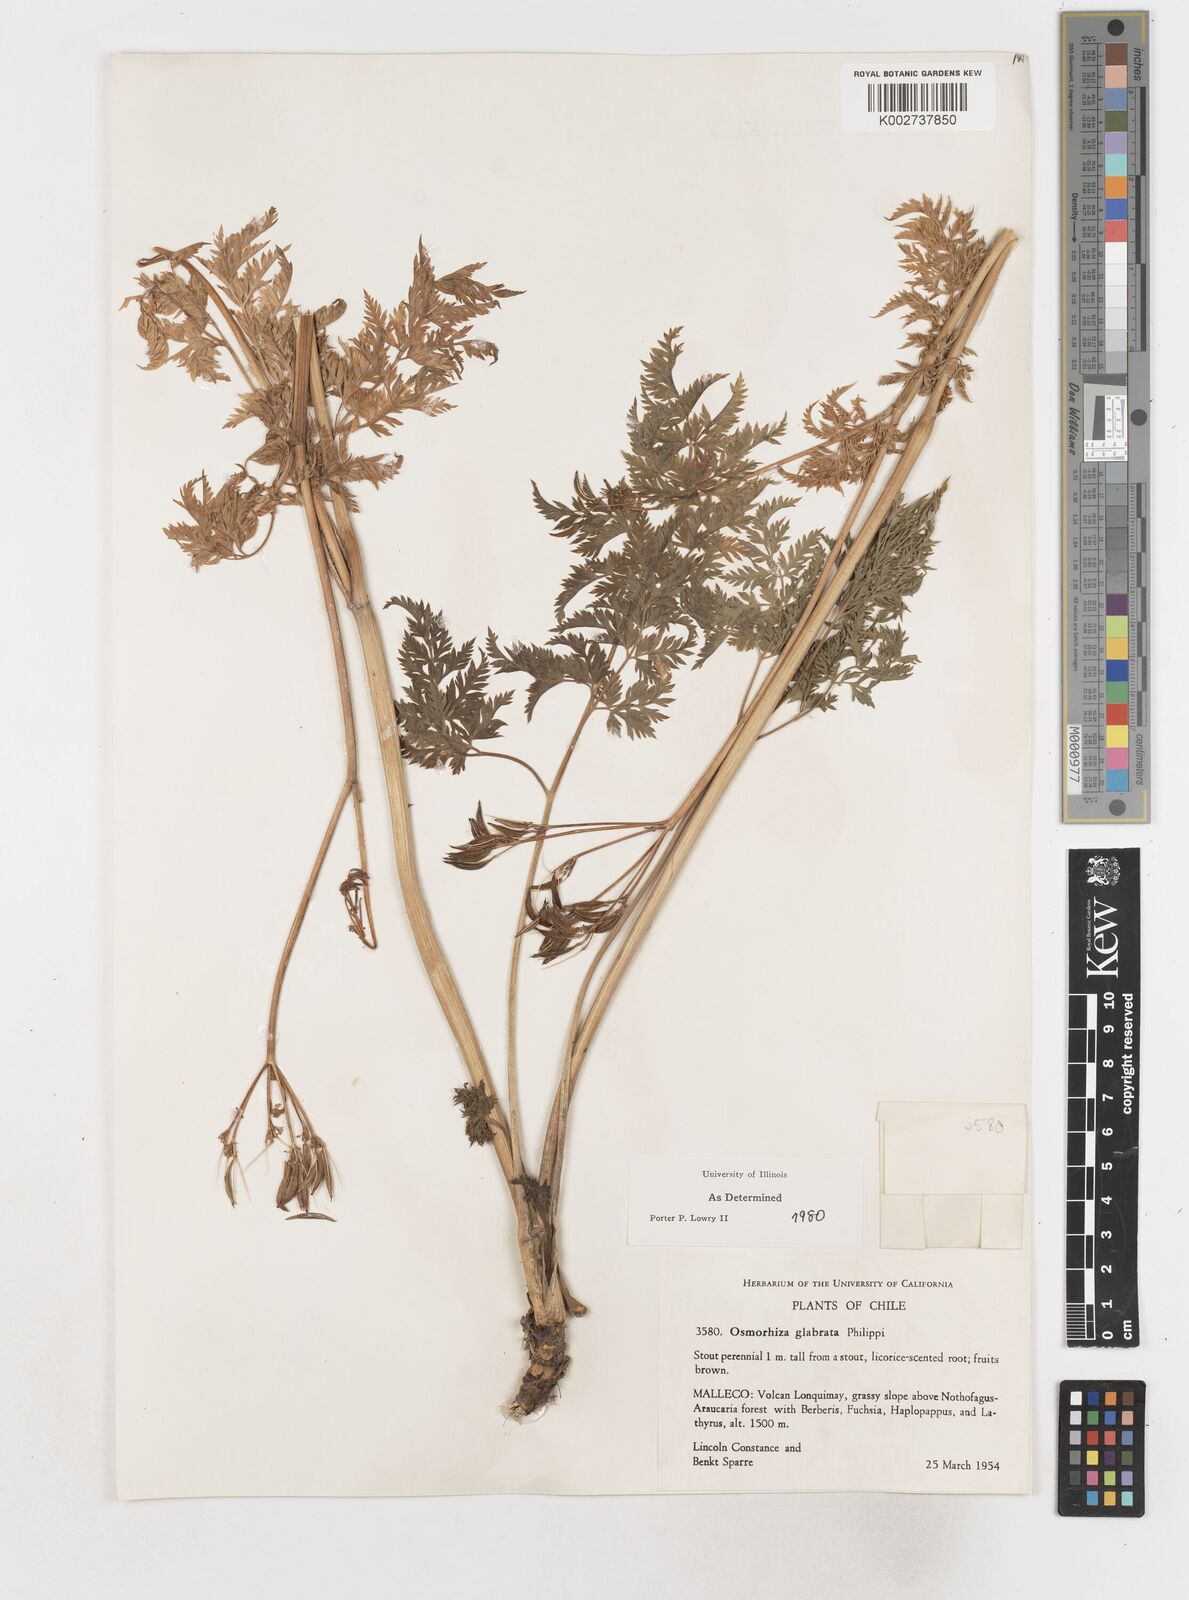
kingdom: Plantae
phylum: Tracheophyta
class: Magnoliopsida
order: Apiales
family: Apiaceae
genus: Osmorhiza
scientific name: Osmorhiza glabrata
